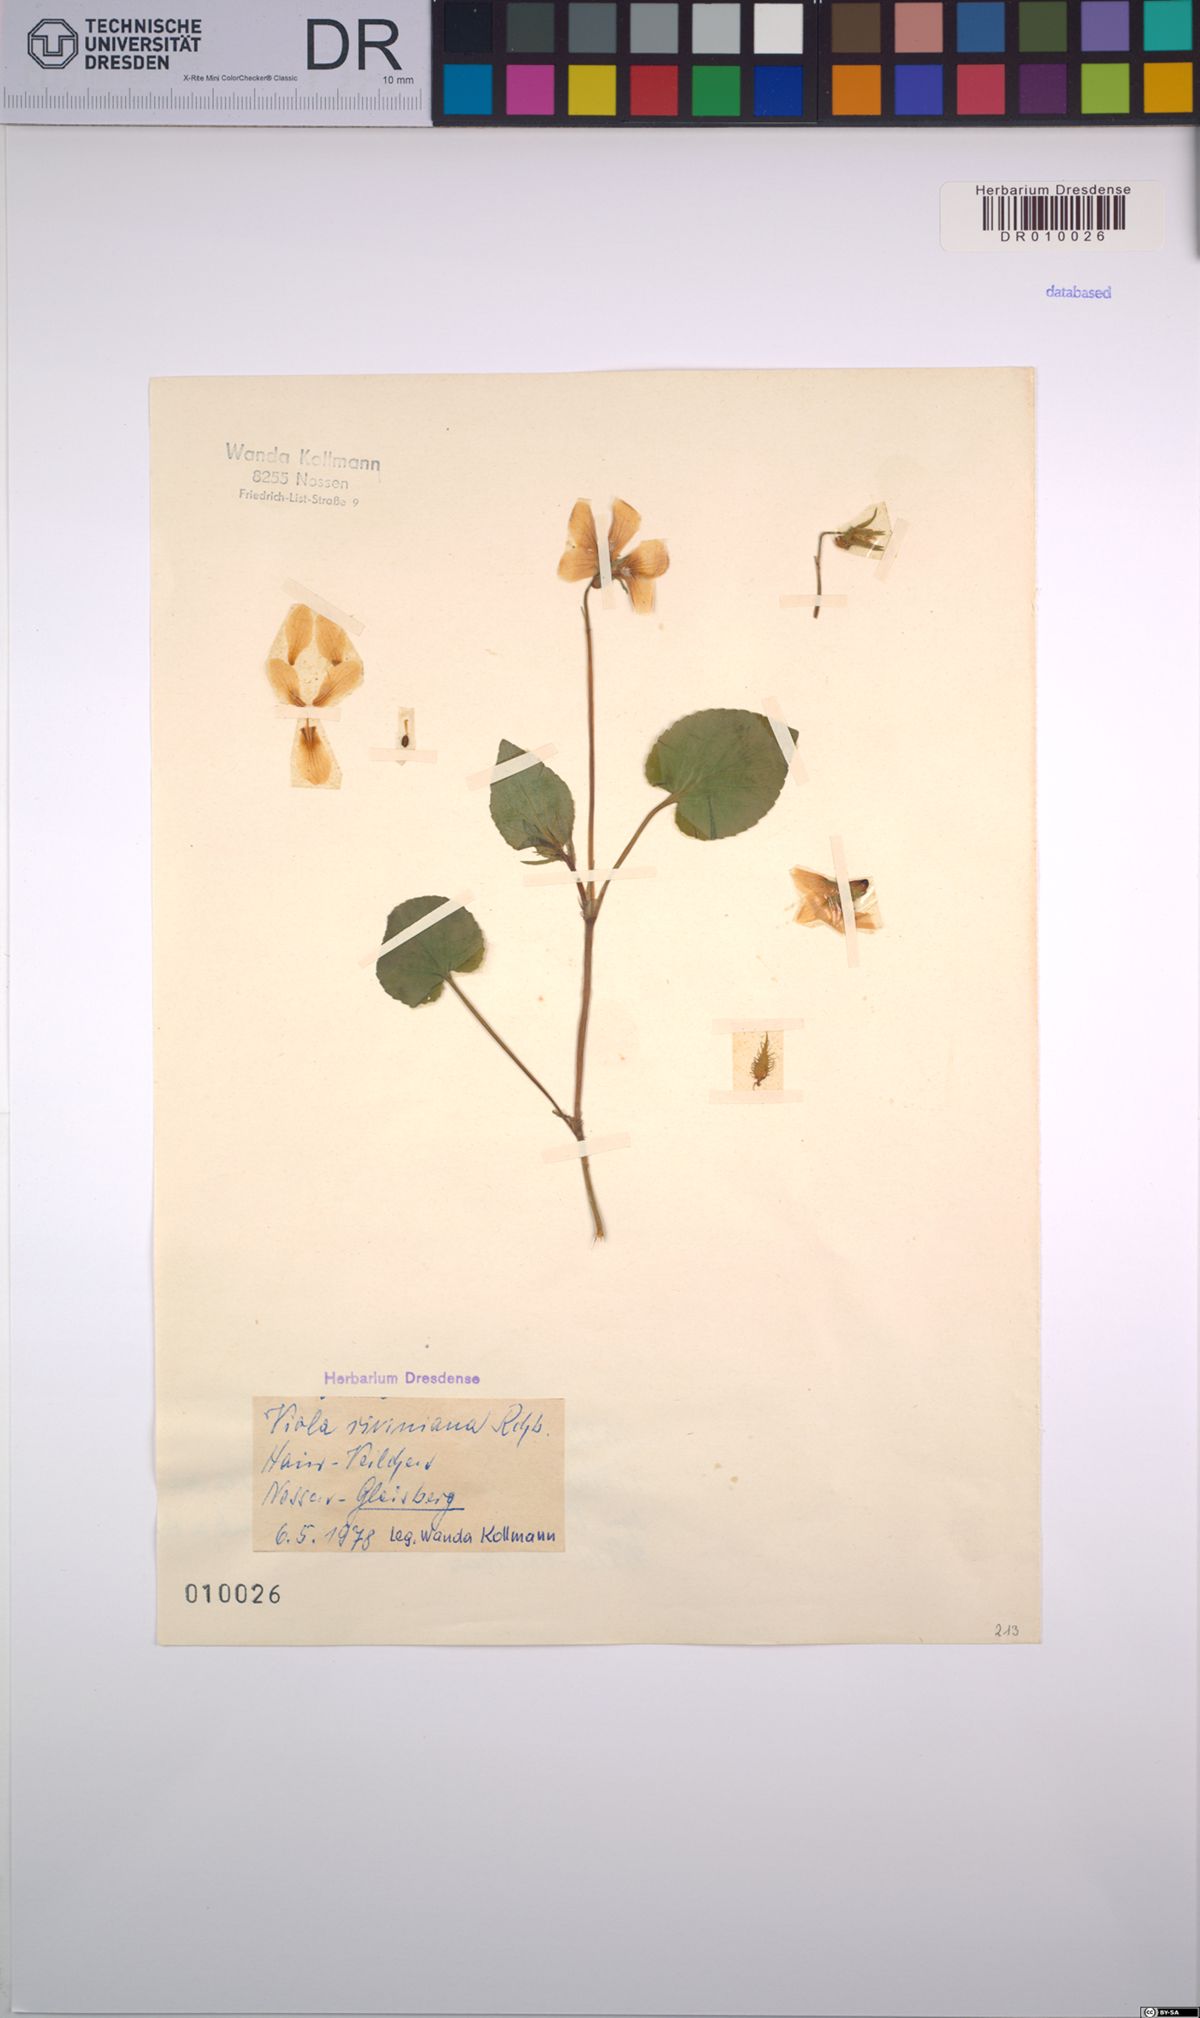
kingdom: Plantae
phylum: Tracheophyta
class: Magnoliopsida
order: Malpighiales
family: Violaceae
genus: Viola
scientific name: Viola riviniana
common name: Common dog-violet
